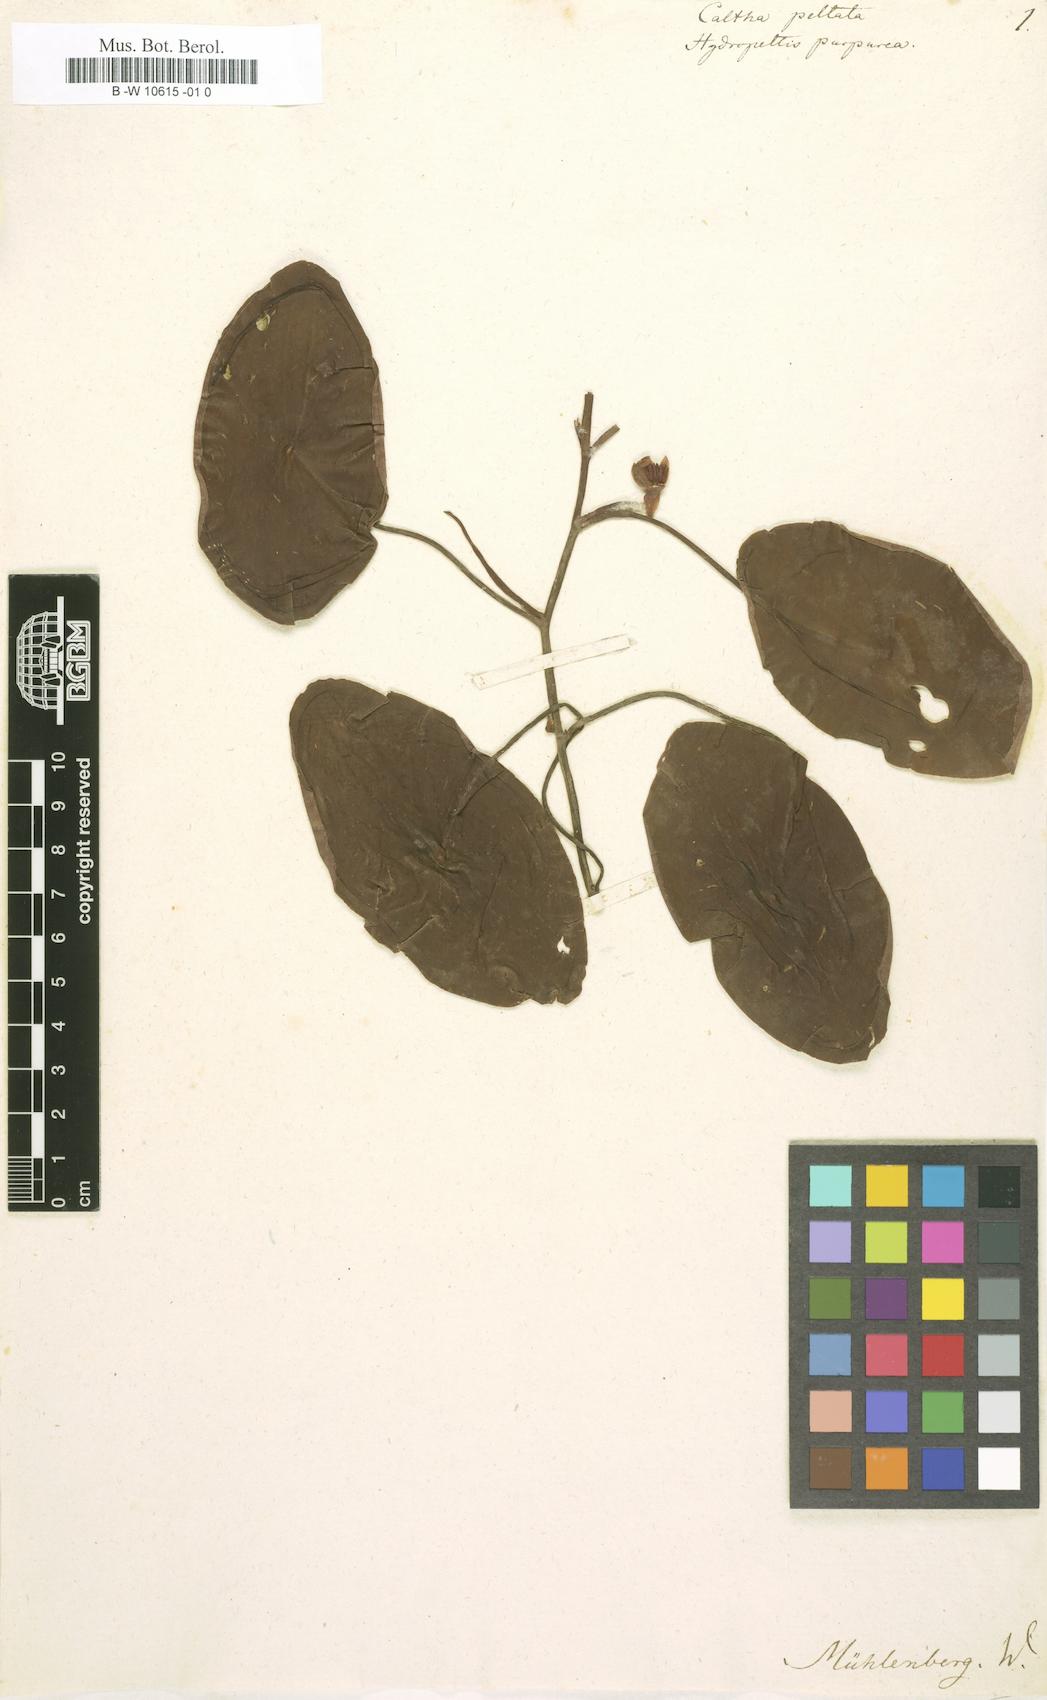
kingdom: Plantae
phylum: Tracheophyta
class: Magnoliopsida
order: Ranunculales
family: Ranunculaceae
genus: Caltha
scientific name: Caltha
